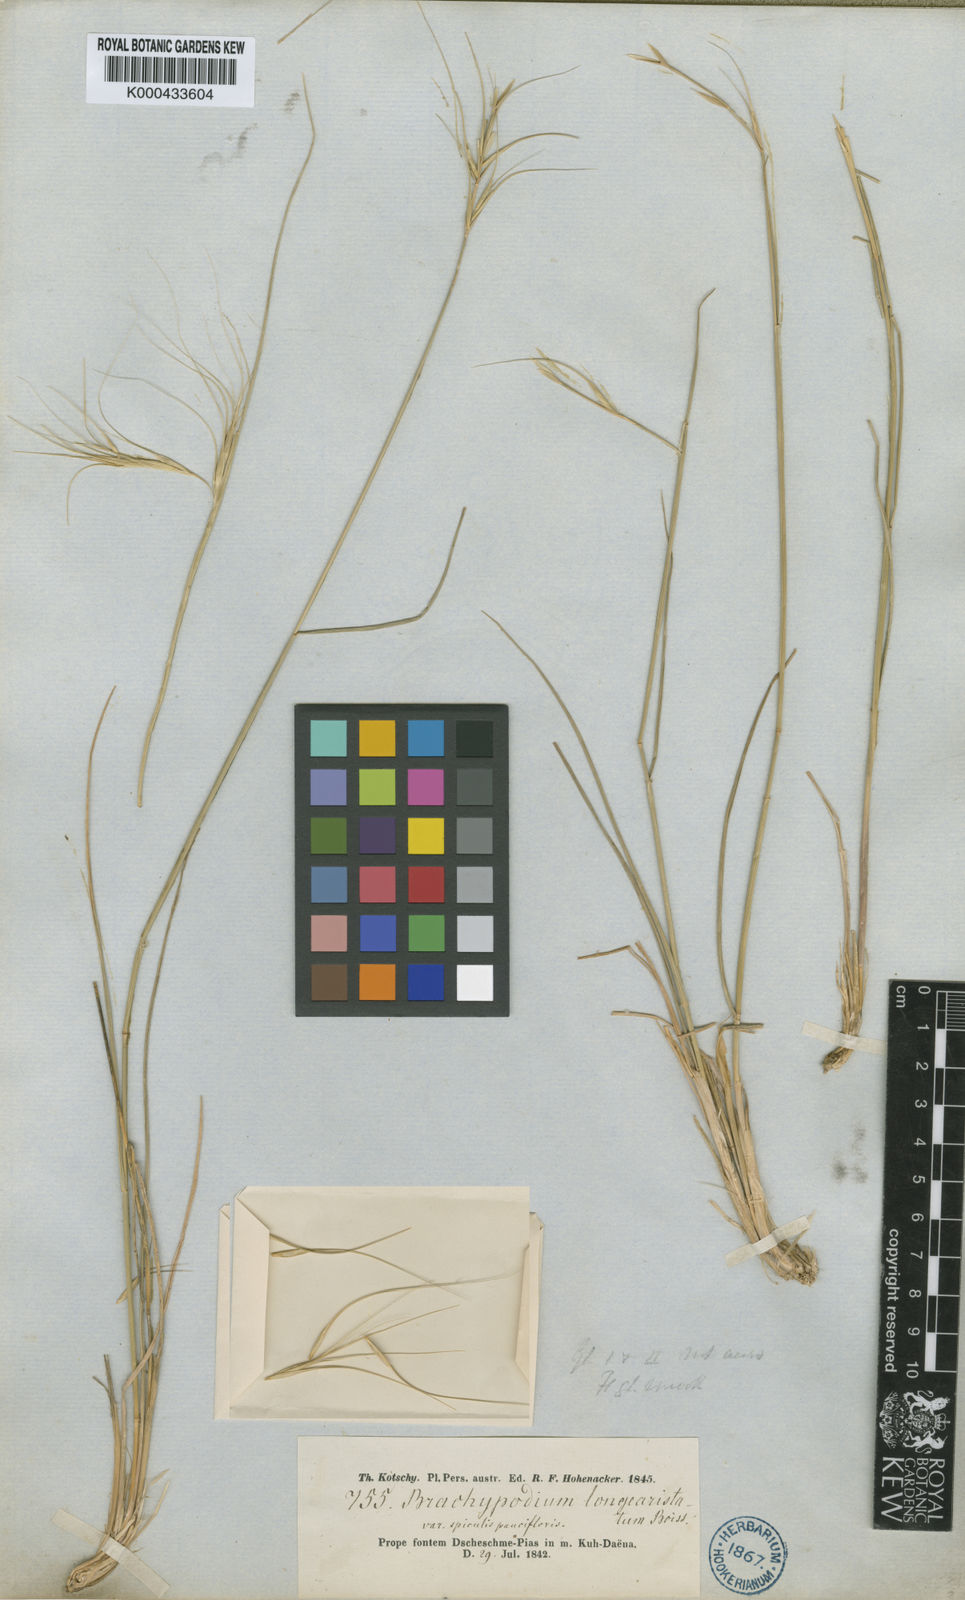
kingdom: Plantae
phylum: Tracheophyta
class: Liliopsida
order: Poales
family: Poaceae
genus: Elymus
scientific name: Elymus
